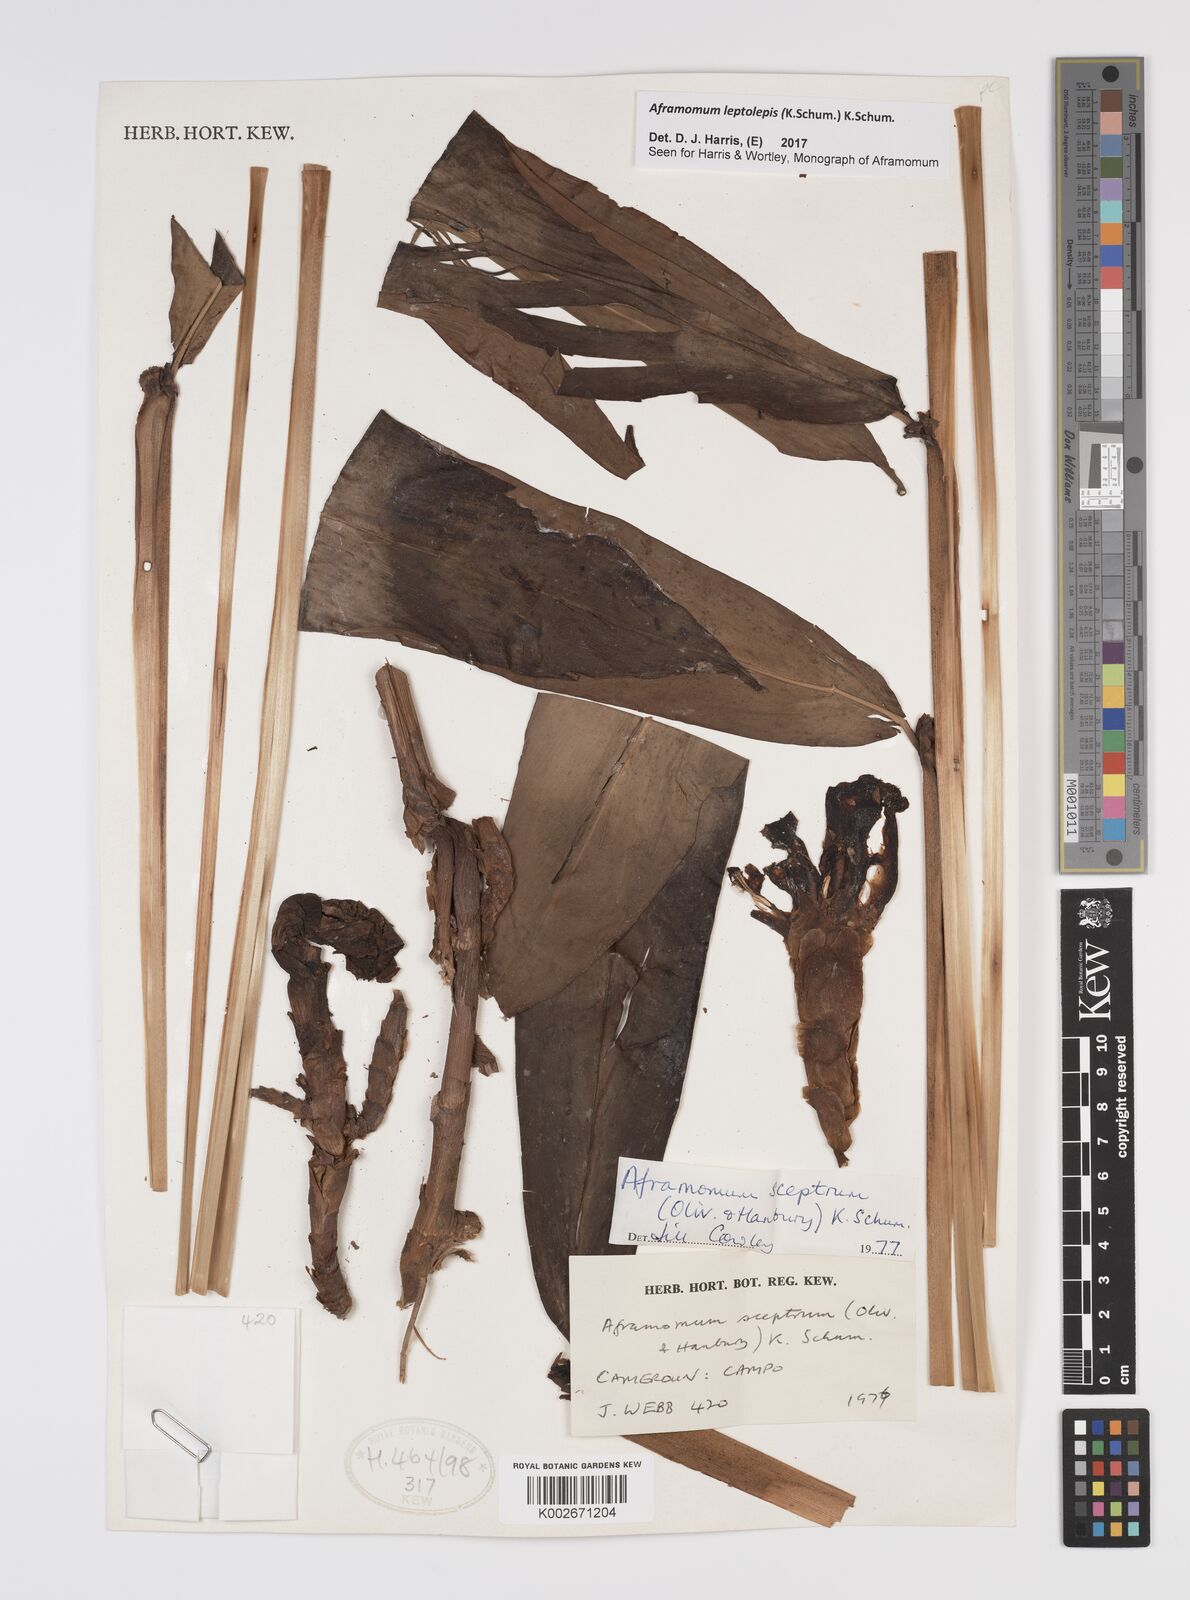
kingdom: Plantae
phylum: Tracheophyta
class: Liliopsida
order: Zingiberales
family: Zingiberaceae
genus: Aframomum
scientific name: Aframomum leptolepis
